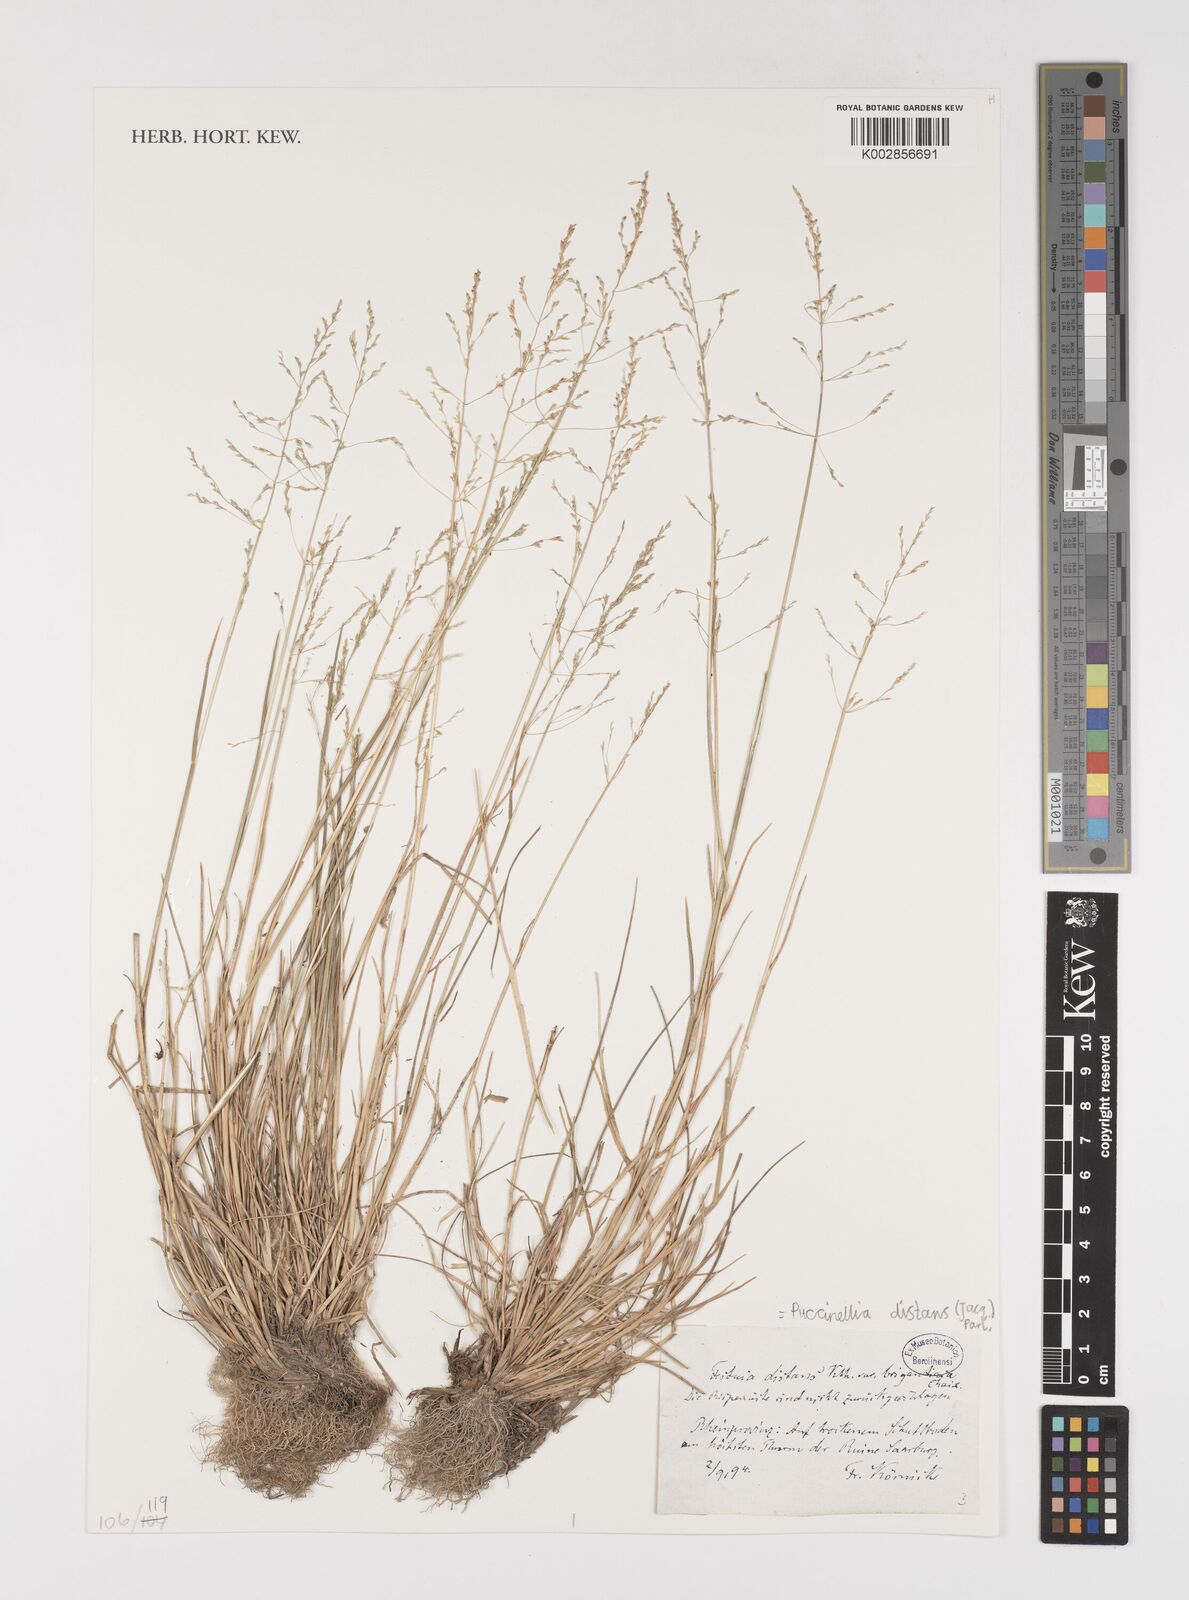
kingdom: Plantae
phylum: Tracheophyta
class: Liliopsida
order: Poales
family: Poaceae
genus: Puccinellia
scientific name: Puccinellia distans
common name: Weeping alkaligrass
